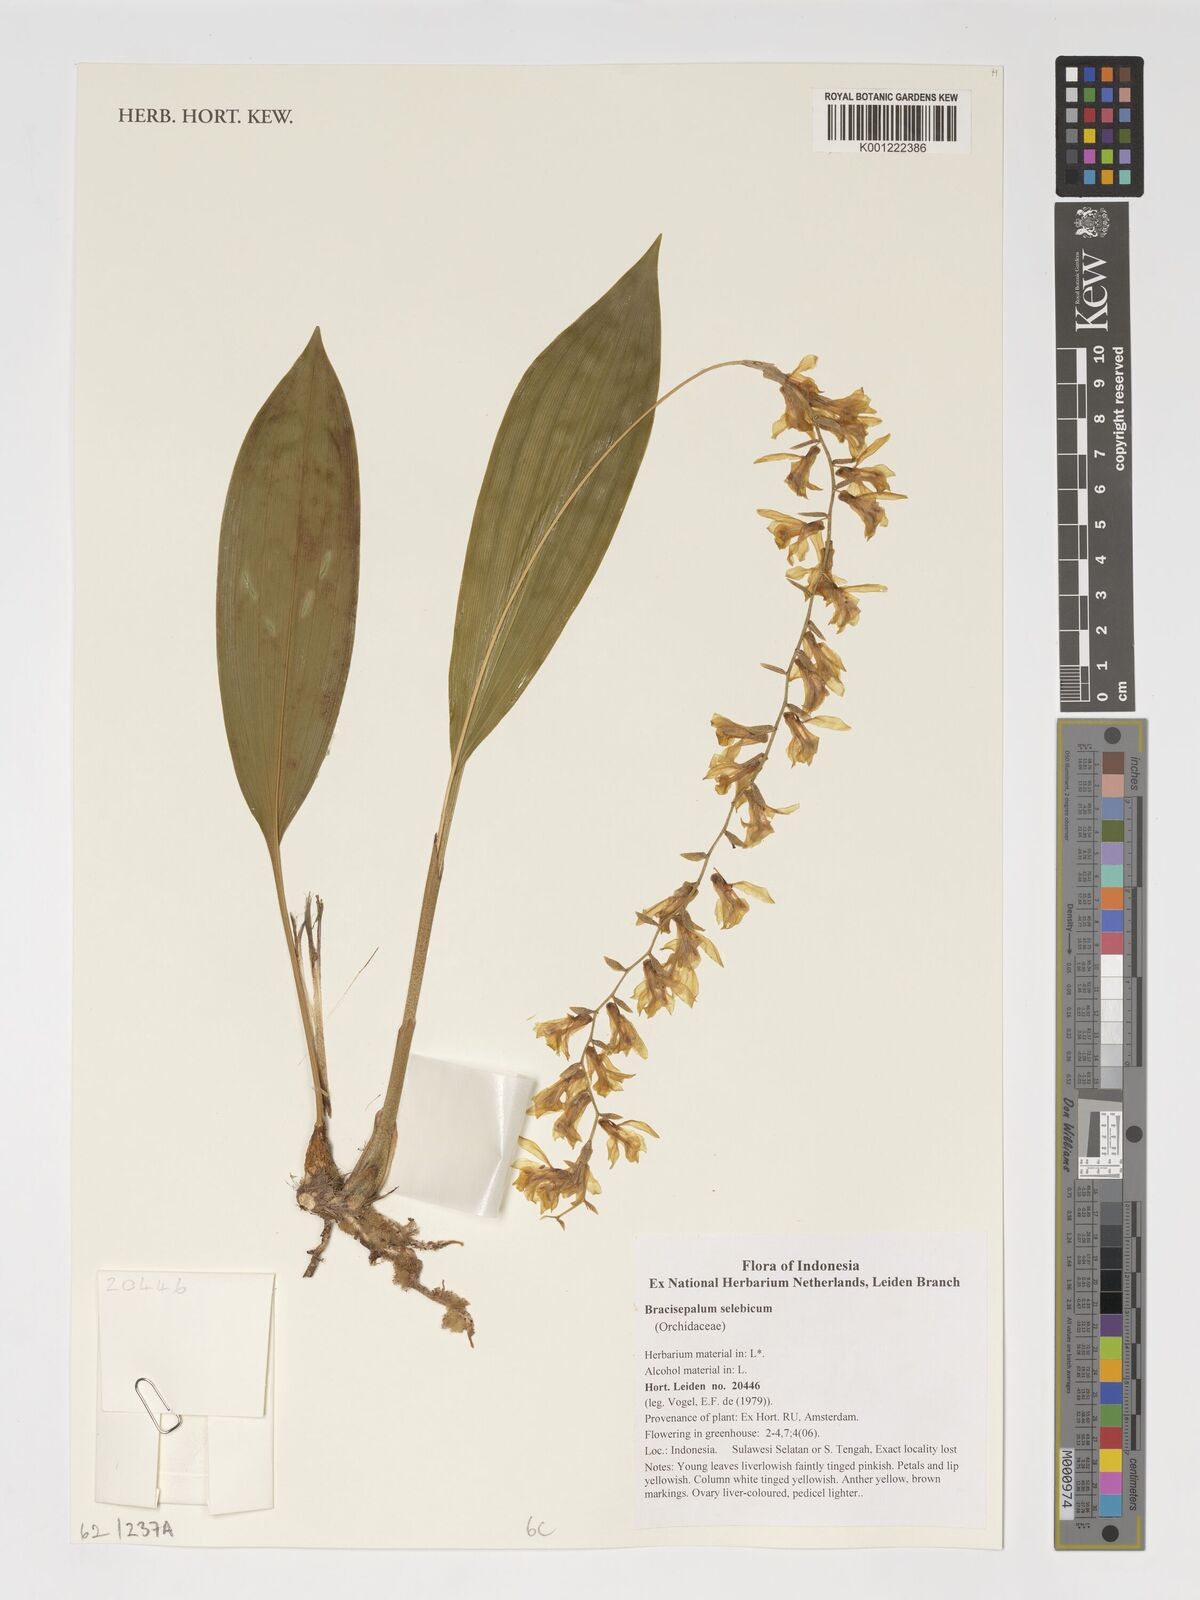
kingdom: Plantae
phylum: Tracheophyta
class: Liliopsida
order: Asparagales
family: Orchidaceae
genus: Coelogyne
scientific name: Coelogyne selebica
